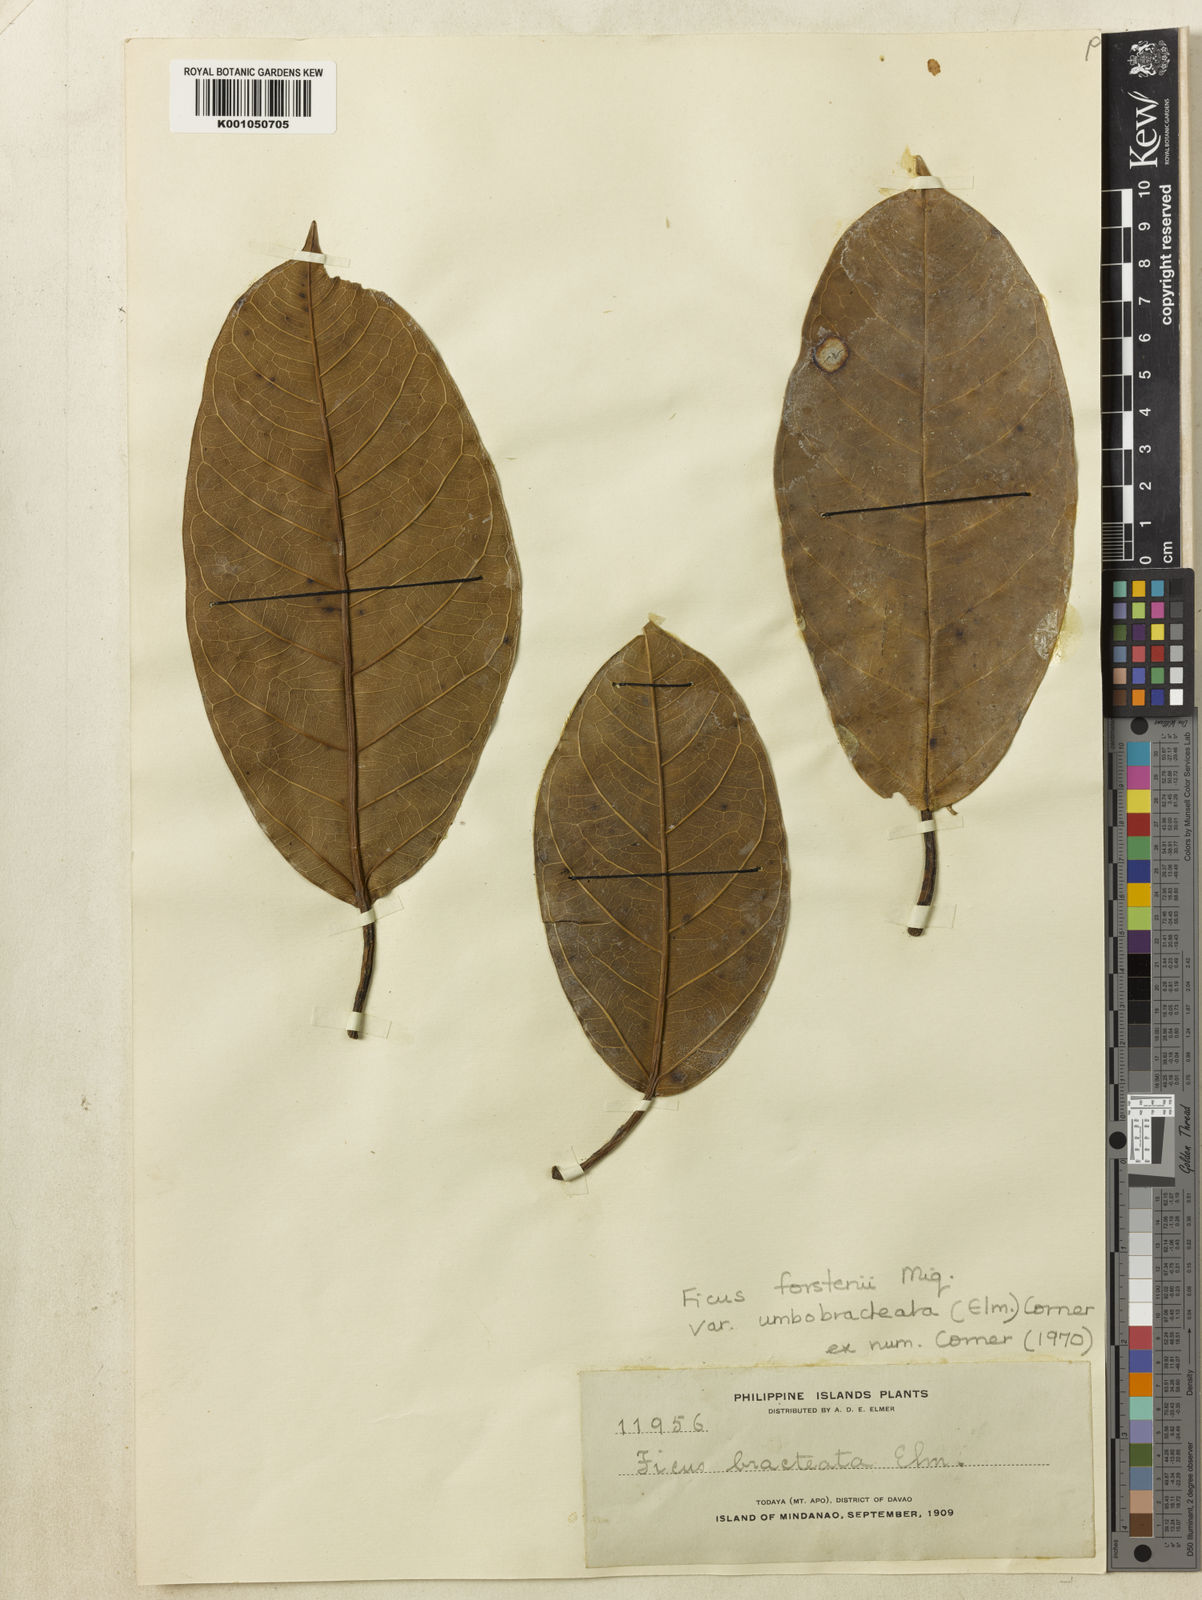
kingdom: Plantae
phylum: Tracheophyta
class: Magnoliopsida
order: Rosales
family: Moraceae
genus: Ficus
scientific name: Ficus forstenii
